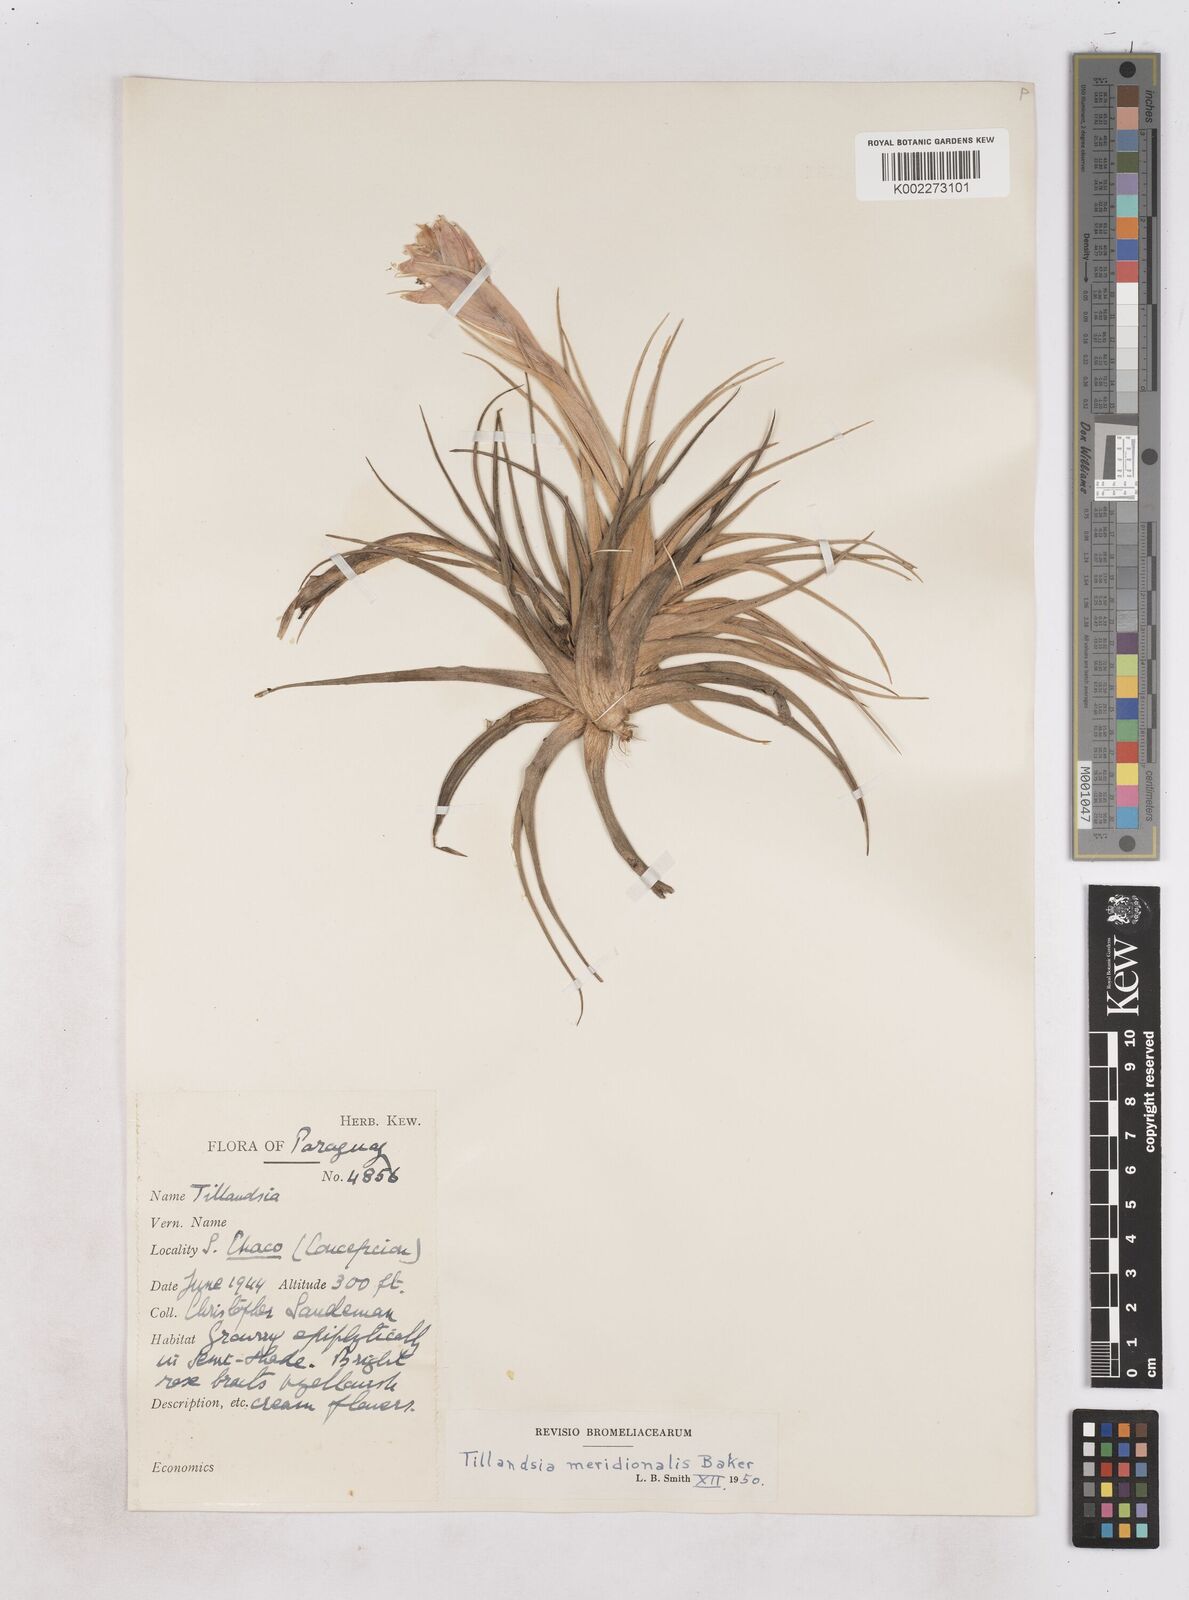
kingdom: Plantae
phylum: Tracheophyta
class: Liliopsida
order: Poales
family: Bromeliaceae
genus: Tillandsia
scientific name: Tillandsia recurvifolia
